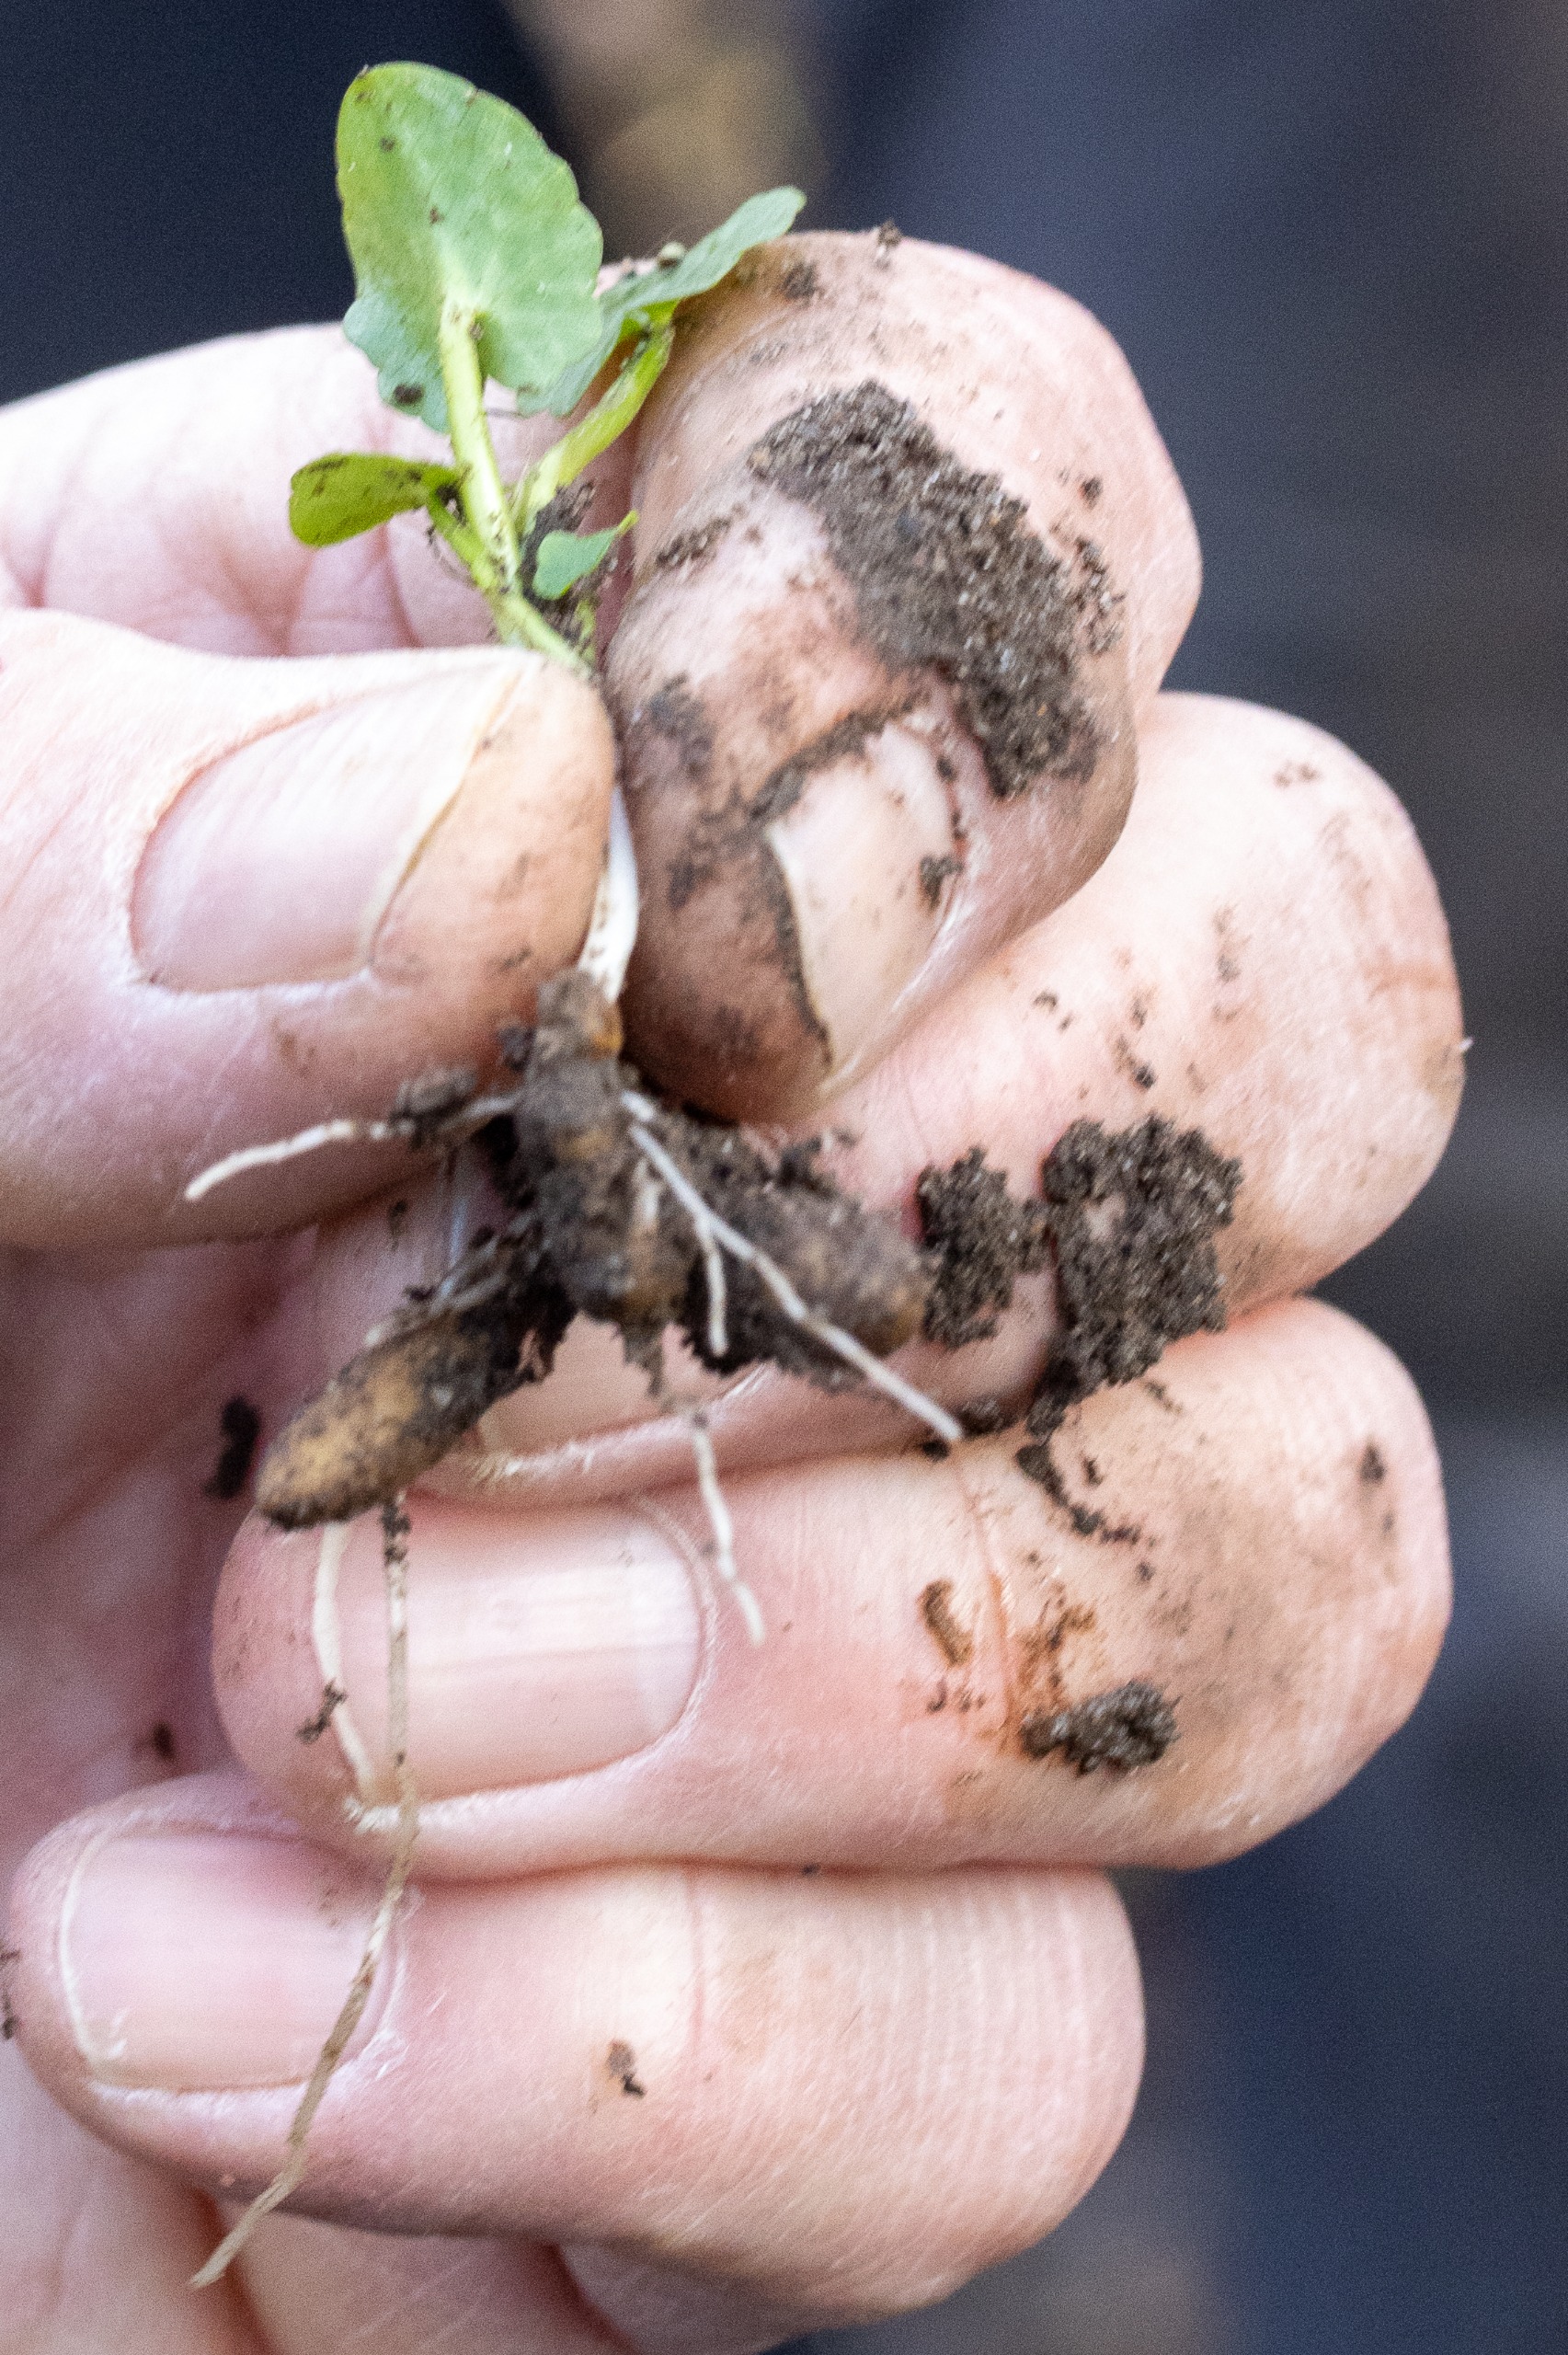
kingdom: Plantae
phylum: Tracheophyta
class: Magnoliopsida
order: Ranunculales
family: Ranunculaceae
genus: Ficaria
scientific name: Ficaria verna
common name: Vorterod
